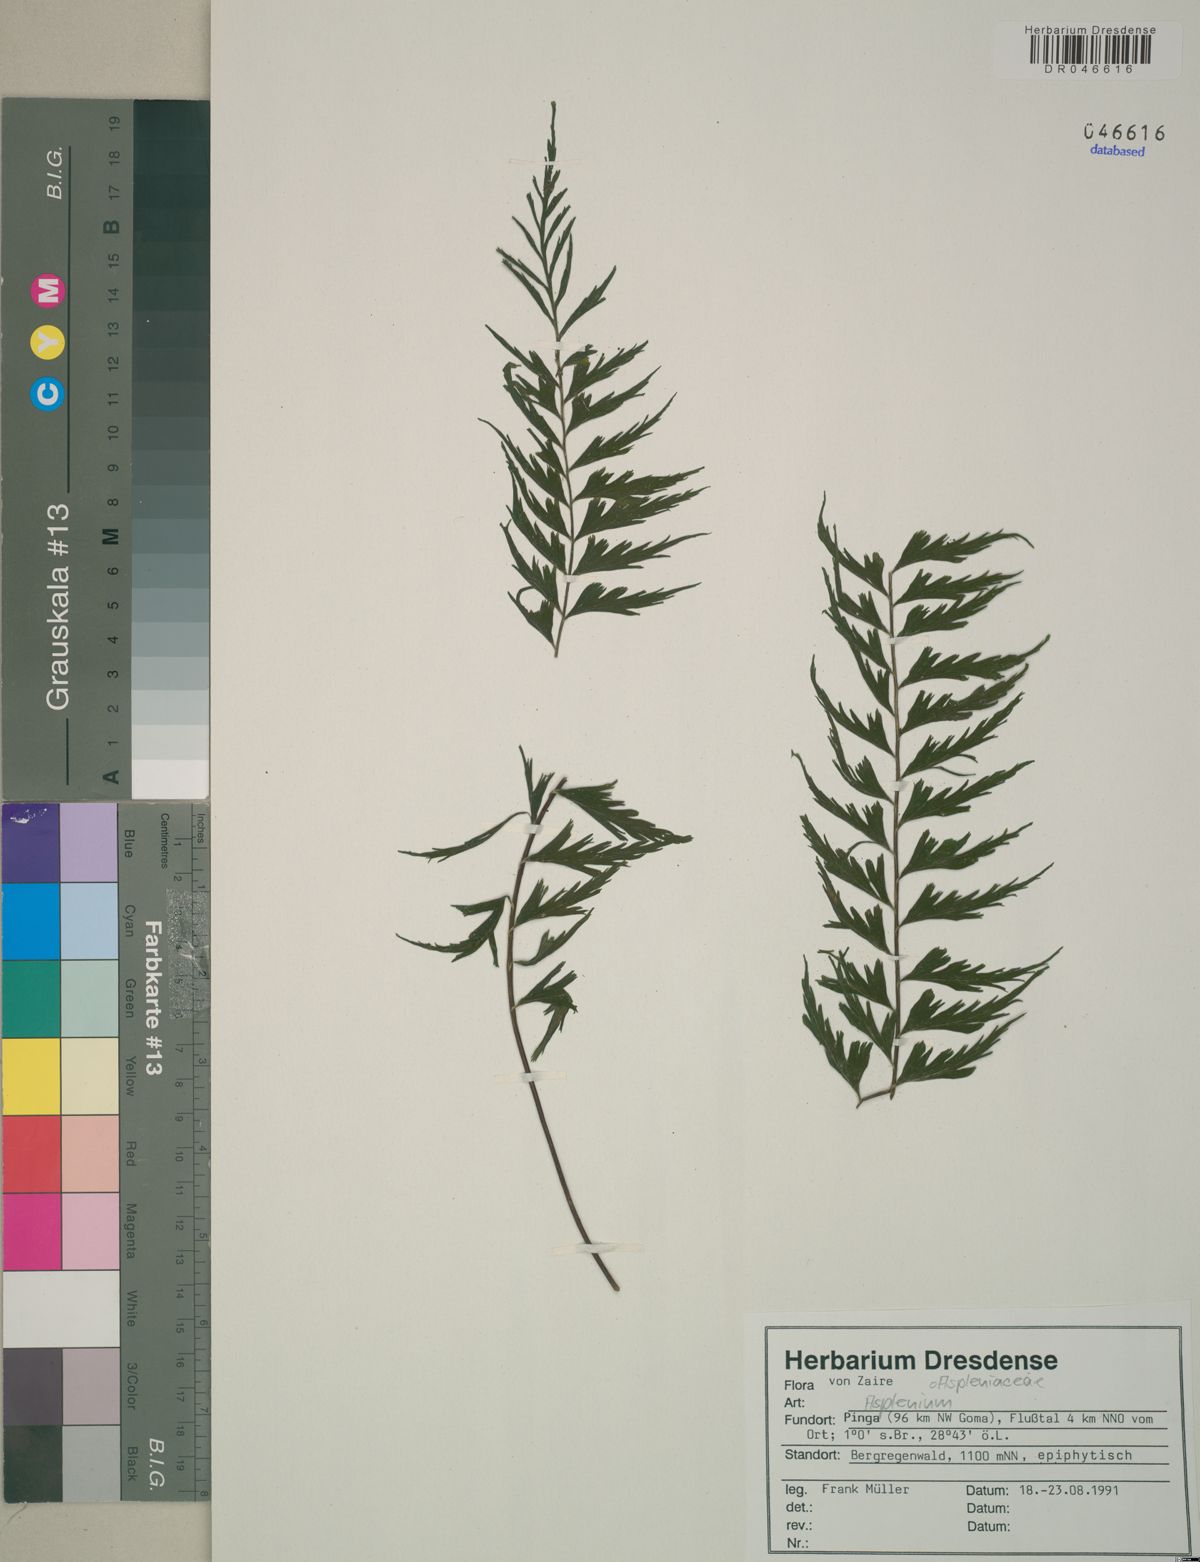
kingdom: Plantae
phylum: Tracheophyta
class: Polypodiopsida
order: Polypodiales
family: Aspleniaceae
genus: Asplenium
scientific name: Asplenium
